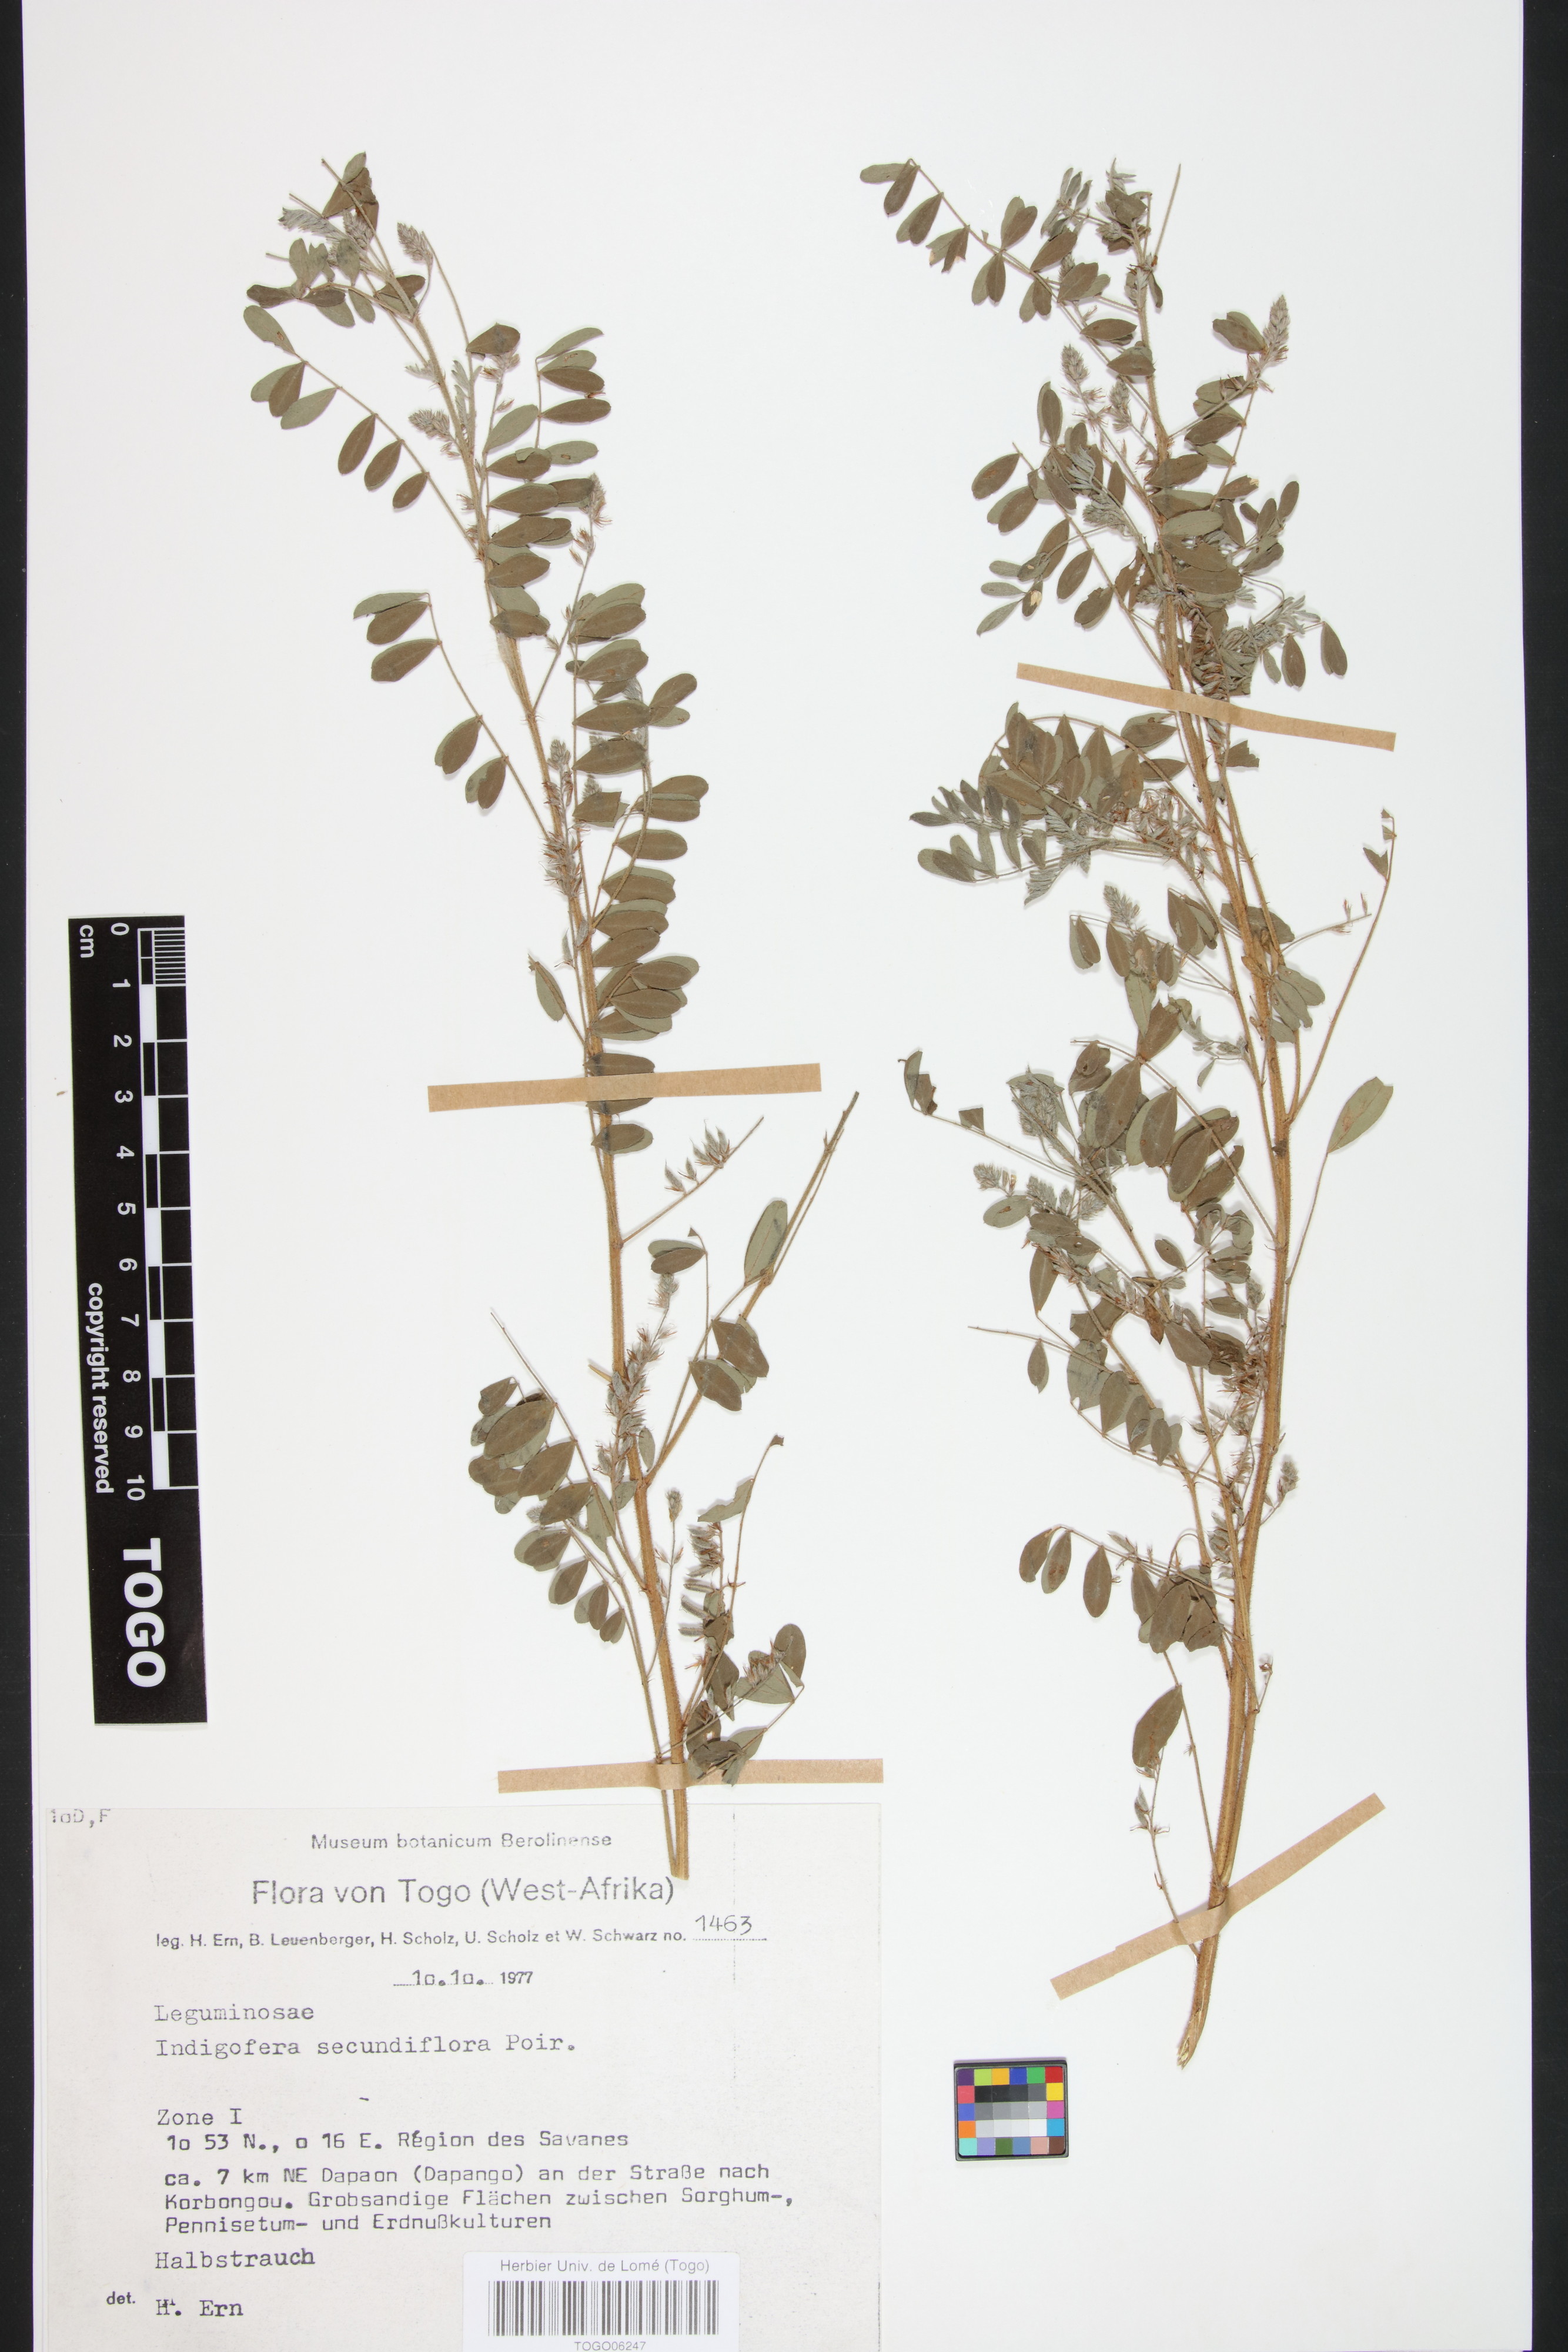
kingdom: Plantae
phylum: Tracheophyta
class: Magnoliopsida
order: Fabales
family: Fabaceae
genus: Indigofera
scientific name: Indigofera secundiflora
